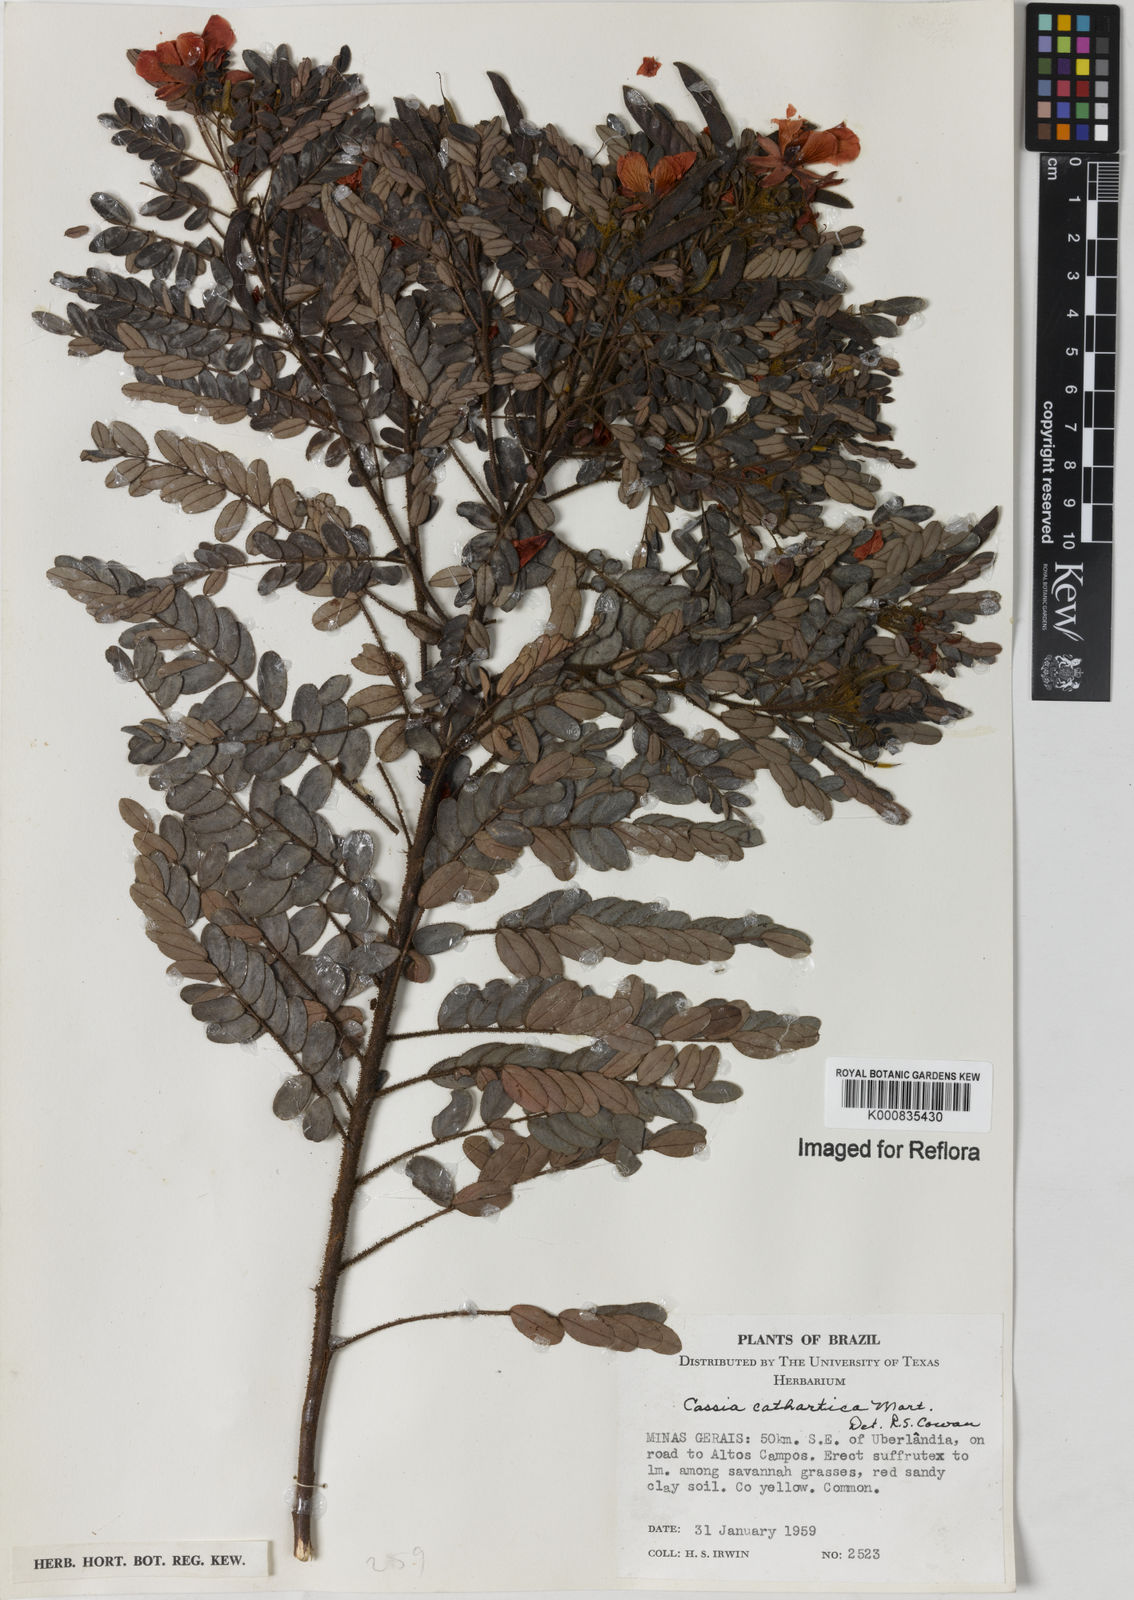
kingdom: Plantae
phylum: Tracheophyta
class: Magnoliopsida
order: Fabales
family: Fabaceae
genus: Chamaecrista
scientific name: Chamaecrista cathartica
